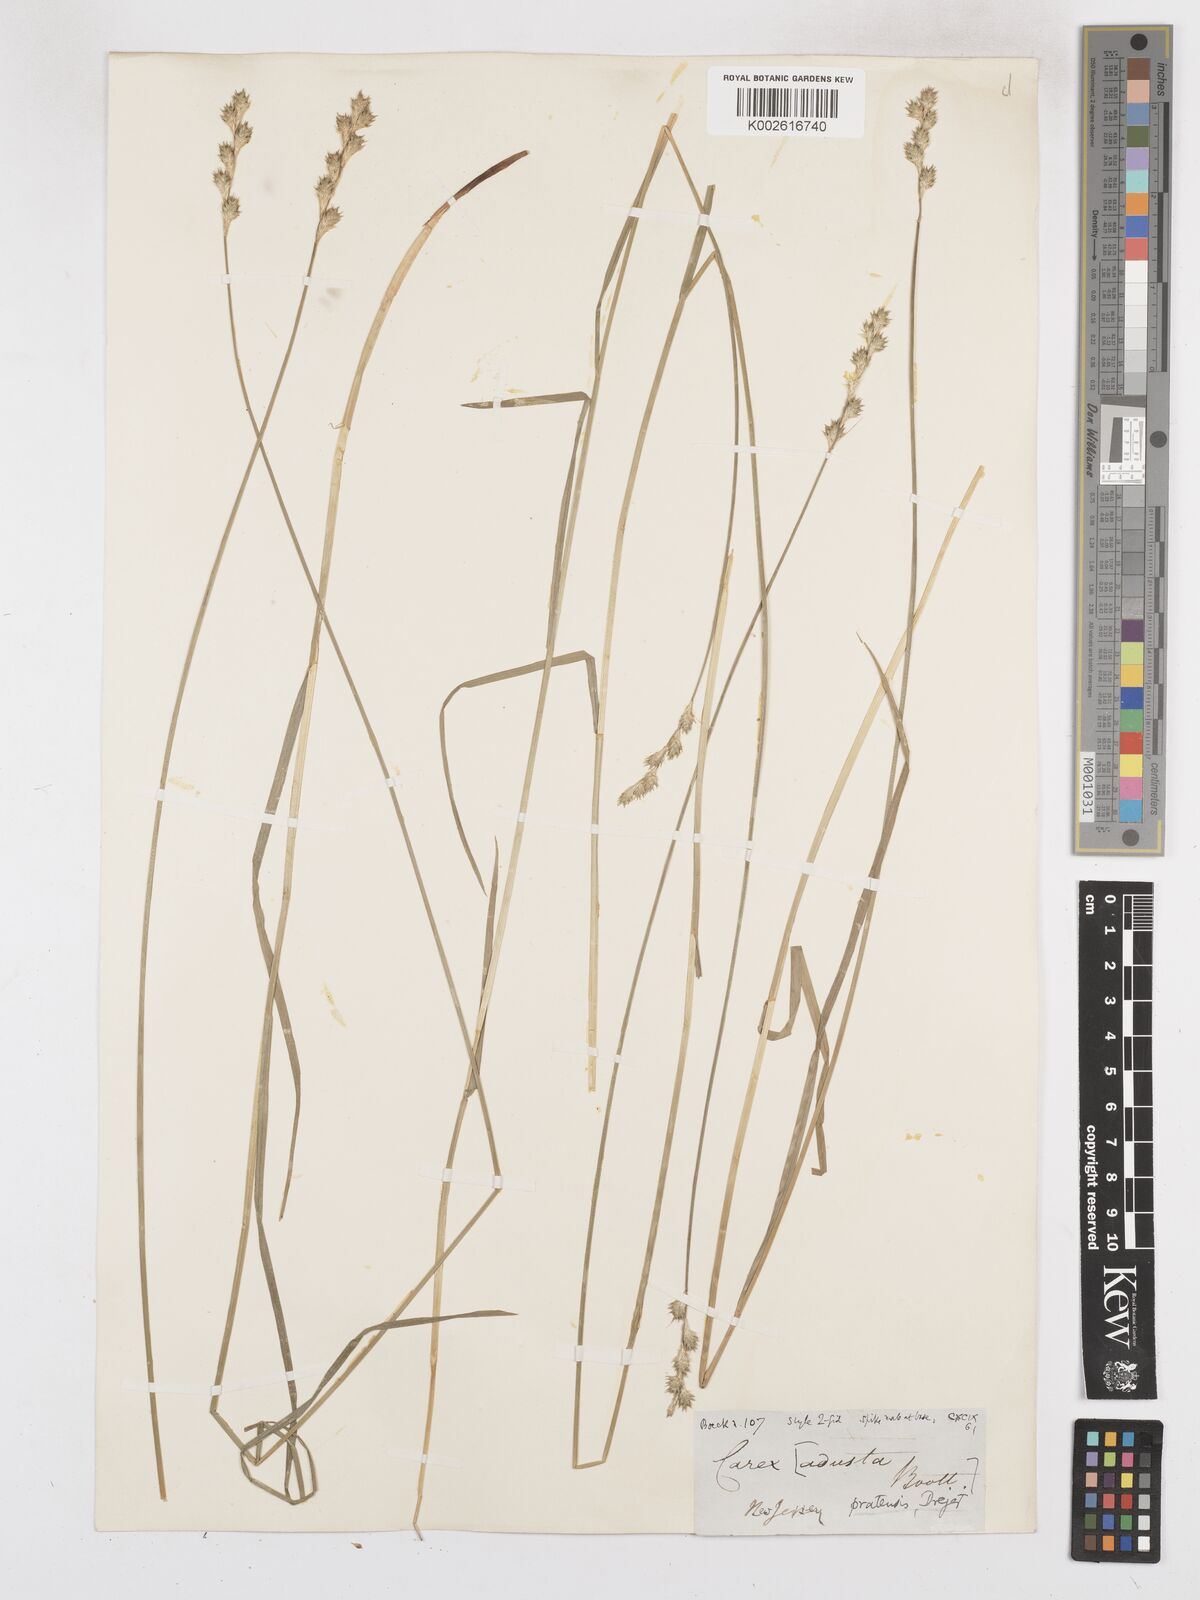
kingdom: Plantae
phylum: Tracheophyta
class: Liliopsida
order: Poales
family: Cyperaceae
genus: Carex
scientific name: Carex argyrantha
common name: Silvery-flowered sedge
